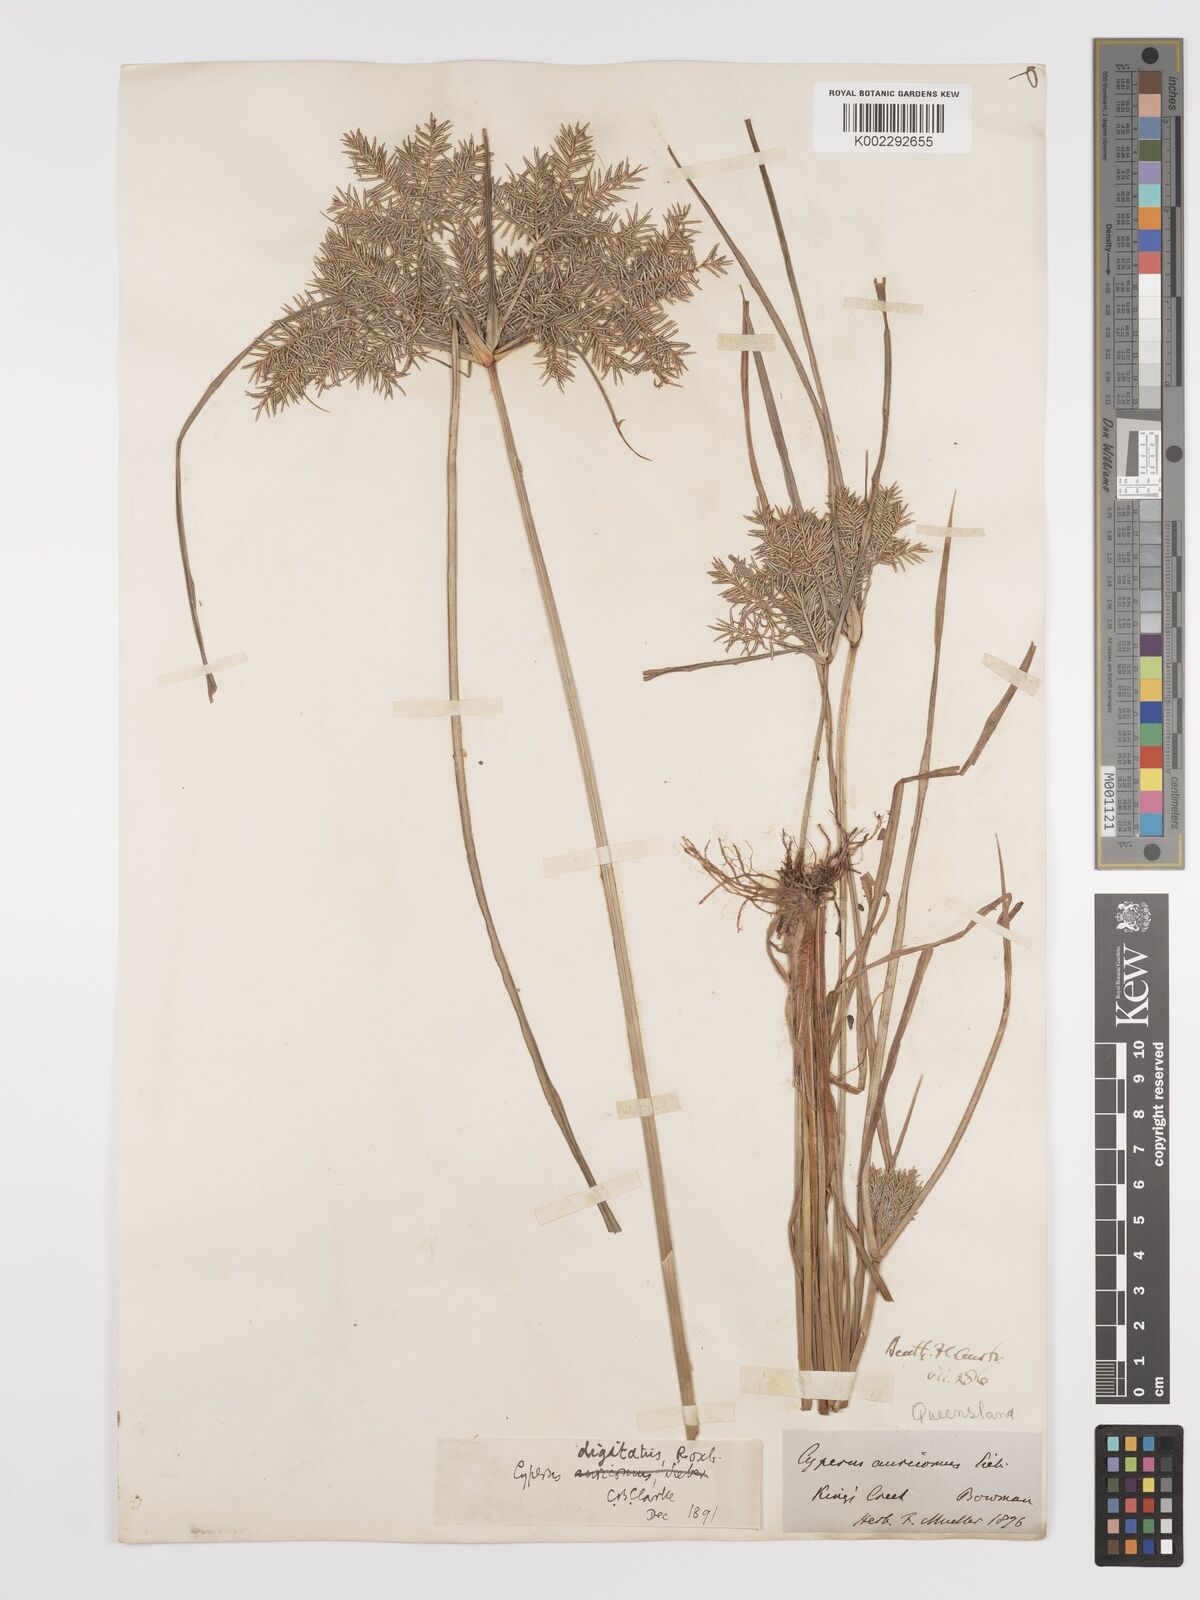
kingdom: Plantae
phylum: Tracheophyta
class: Liliopsida
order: Poales
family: Cyperaceae
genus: Cyperus
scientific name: Cyperus digitatus
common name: Finger flatsedge
